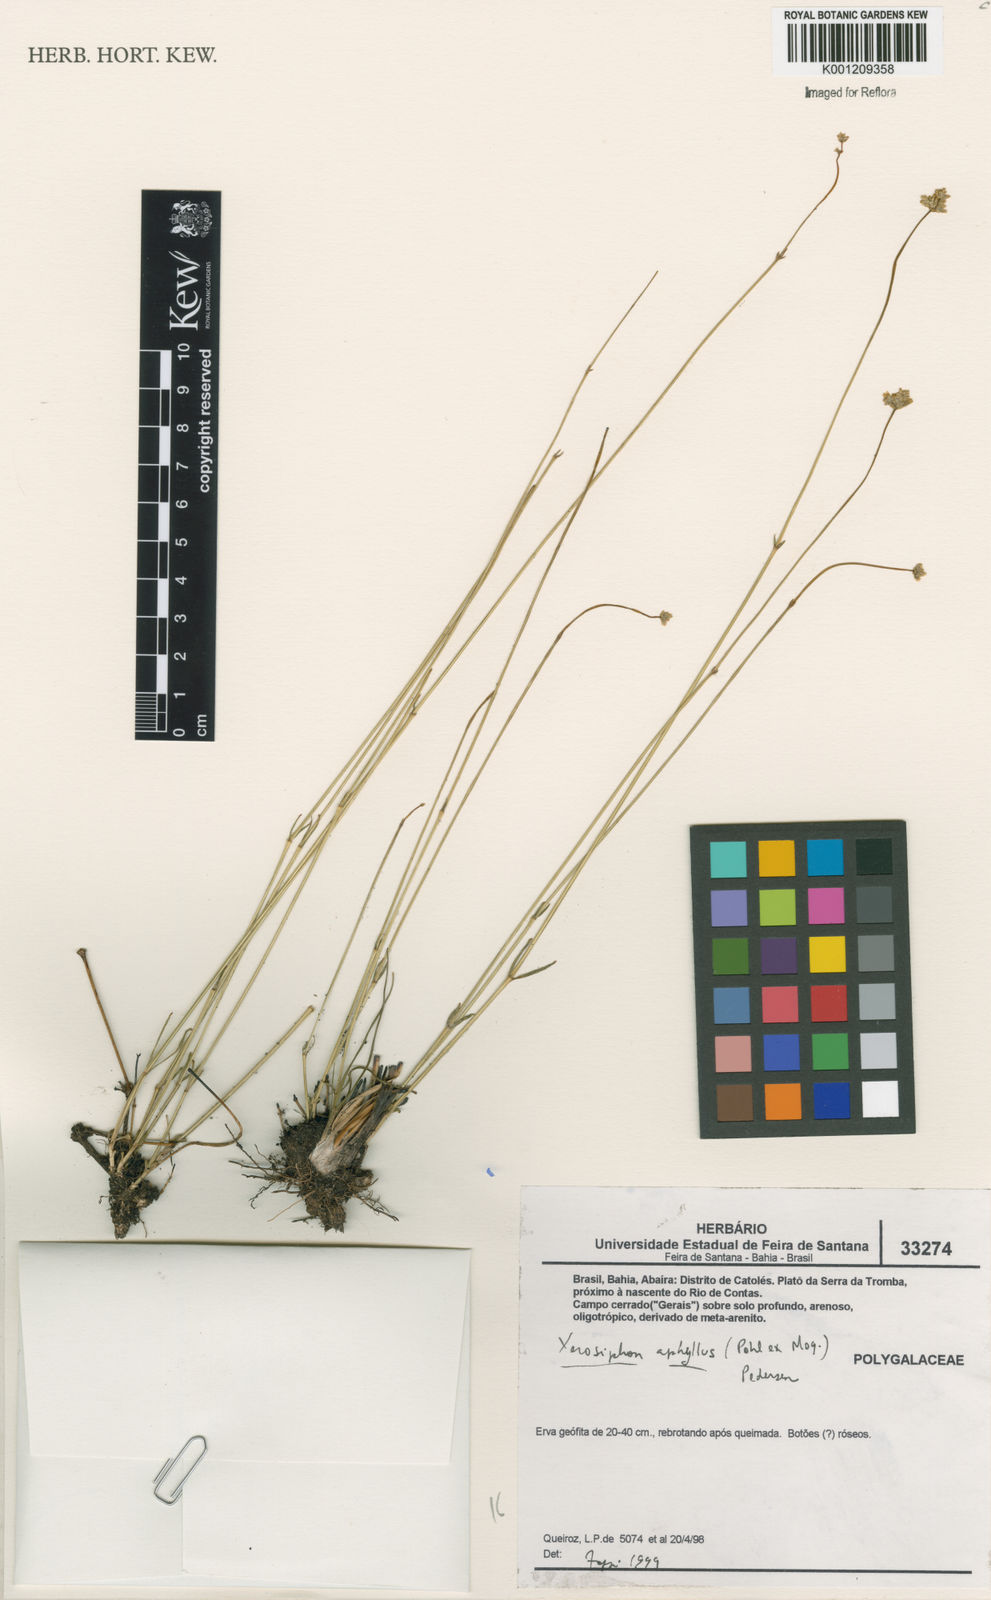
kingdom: Plantae
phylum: Tracheophyta
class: Magnoliopsida
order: Caryophyllales
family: Amaranthaceae
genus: Gomphrena
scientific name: Gomphrena aphylla
